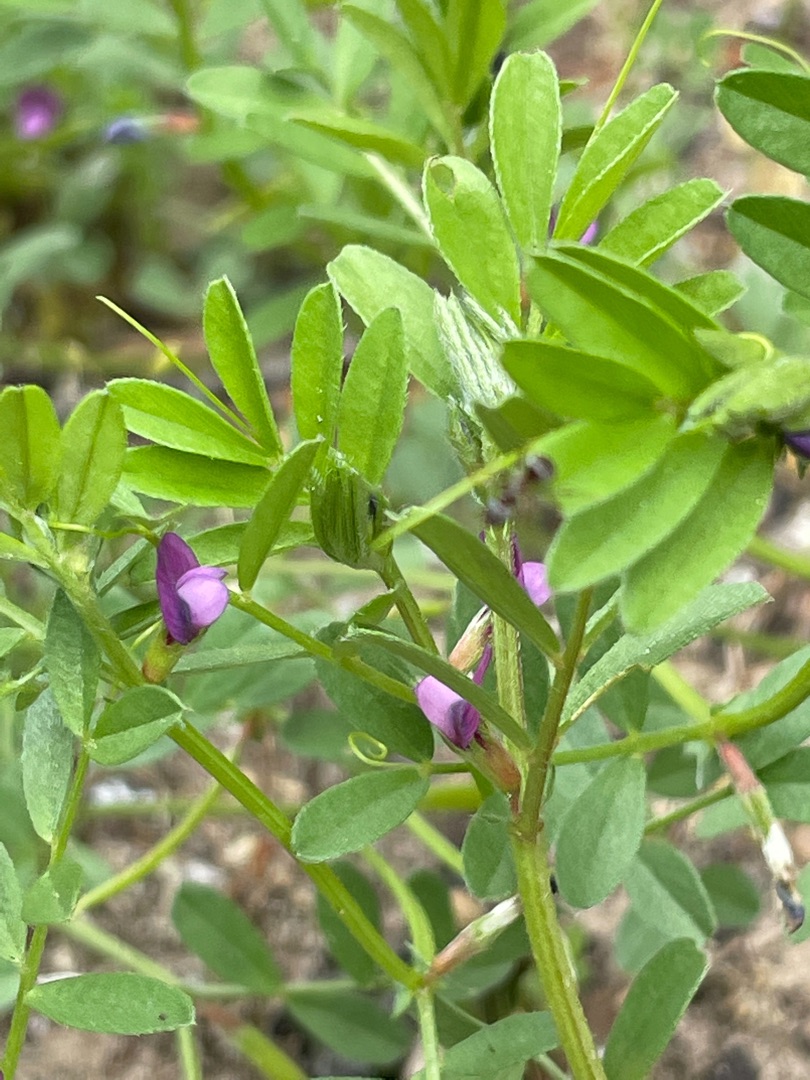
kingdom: Plantae
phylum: Tracheophyta
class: Magnoliopsida
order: Fabales
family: Fabaceae
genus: Vicia
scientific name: Vicia sativa
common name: Foder-vikke
